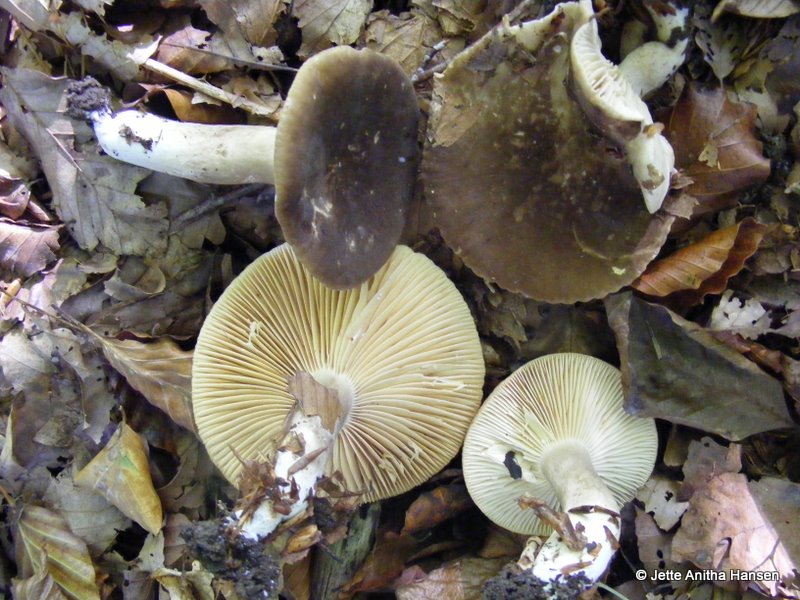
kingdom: Fungi
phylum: Basidiomycota
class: Agaricomycetes
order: Russulales
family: Russulaceae
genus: Lactarius
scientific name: Lactarius romagnesii
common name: fjernbladet mælkehat
